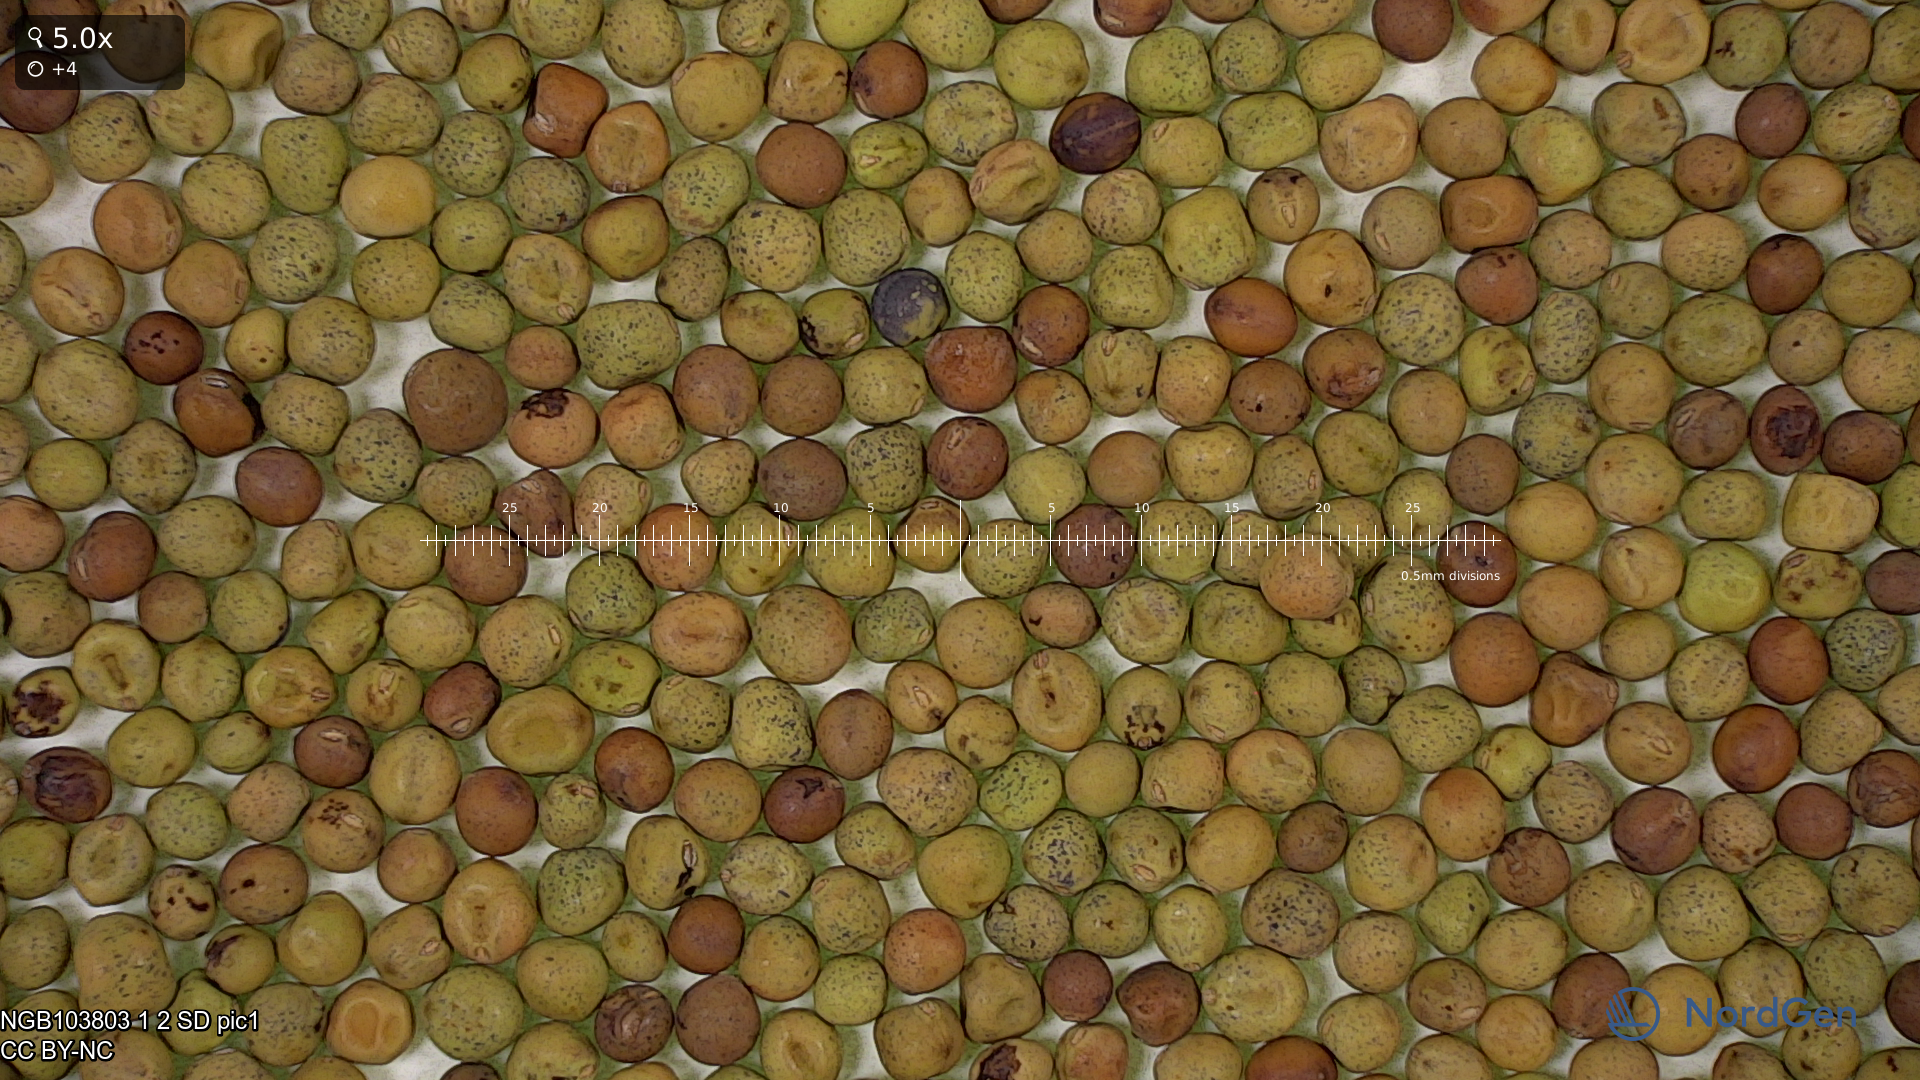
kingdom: Plantae
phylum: Tracheophyta
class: Magnoliopsida
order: Fabales
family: Fabaceae
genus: Lathyrus
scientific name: Lathyrus oleraceus
